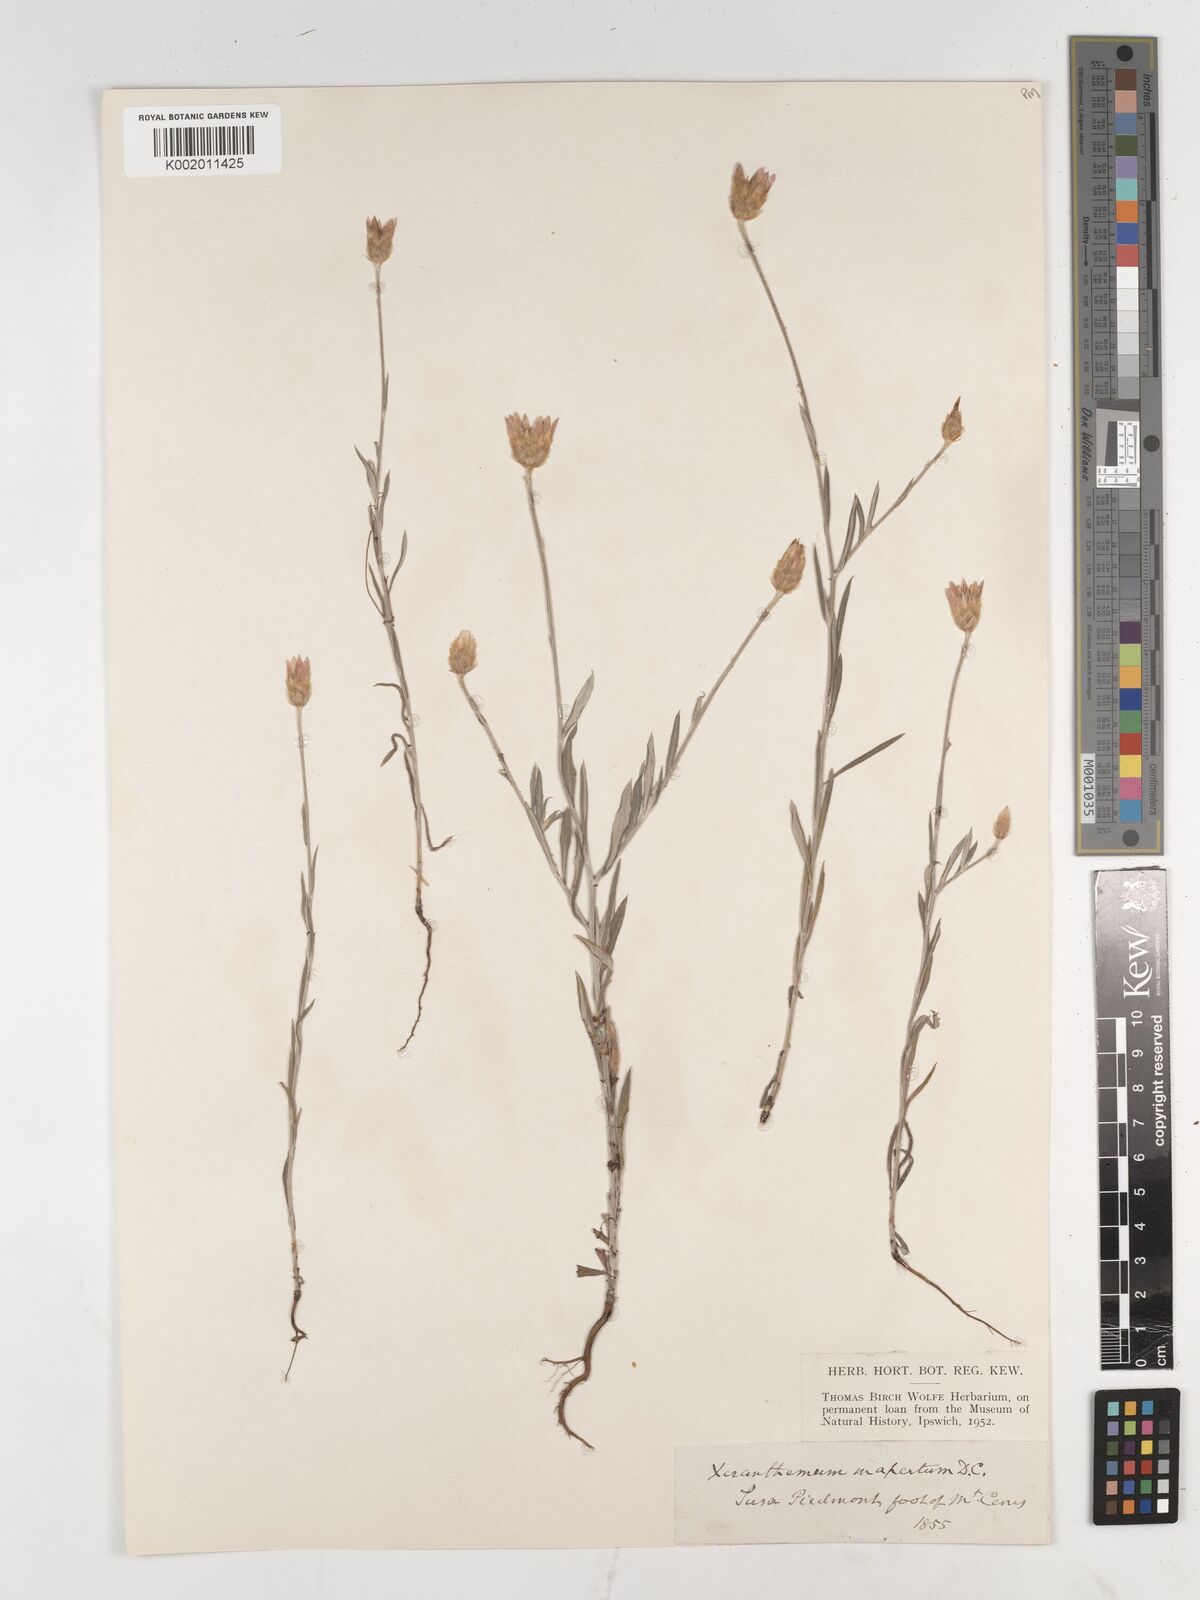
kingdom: Plantae
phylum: Tracheophyta
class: Magnoliopsida
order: Asterales
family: Asteraceae
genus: Xeranthemum
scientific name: Xeranthemum inapertum
